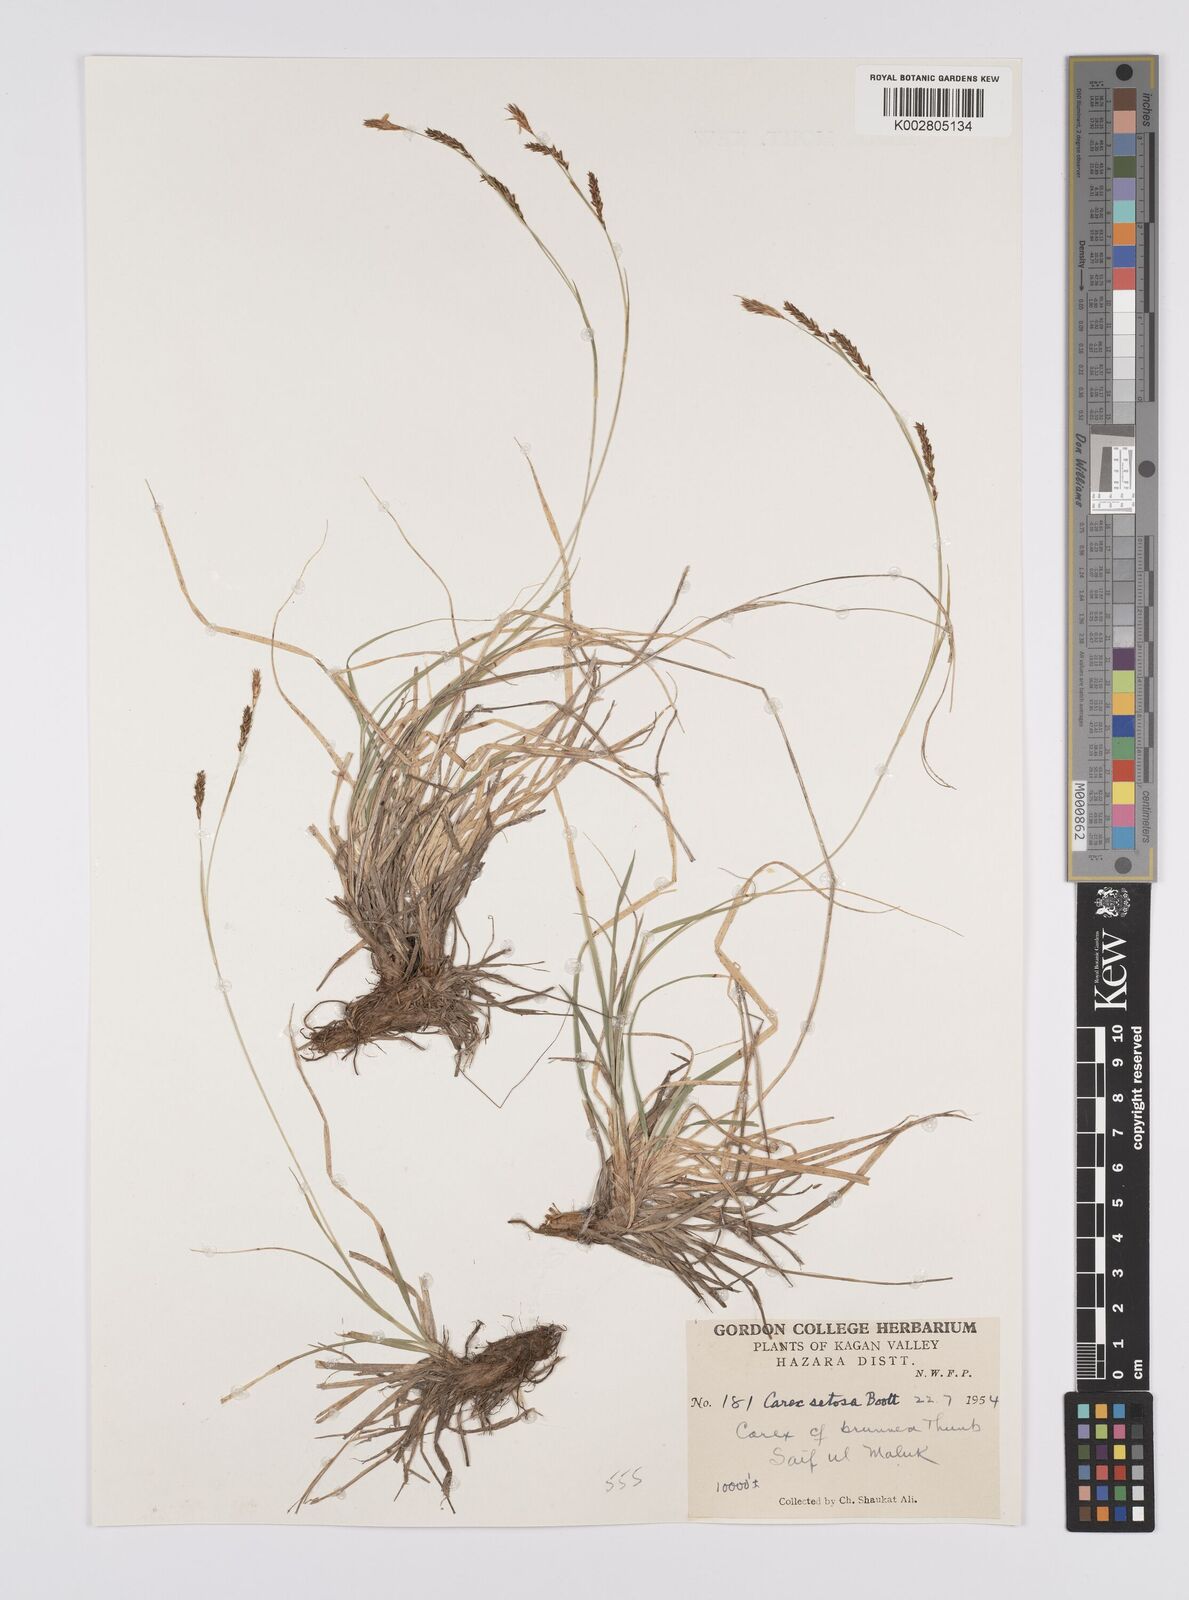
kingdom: Plantae
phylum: Tracheophyta
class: Liliopsida
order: Poales
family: Cyperaceae
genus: Carex
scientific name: Carex setosa
